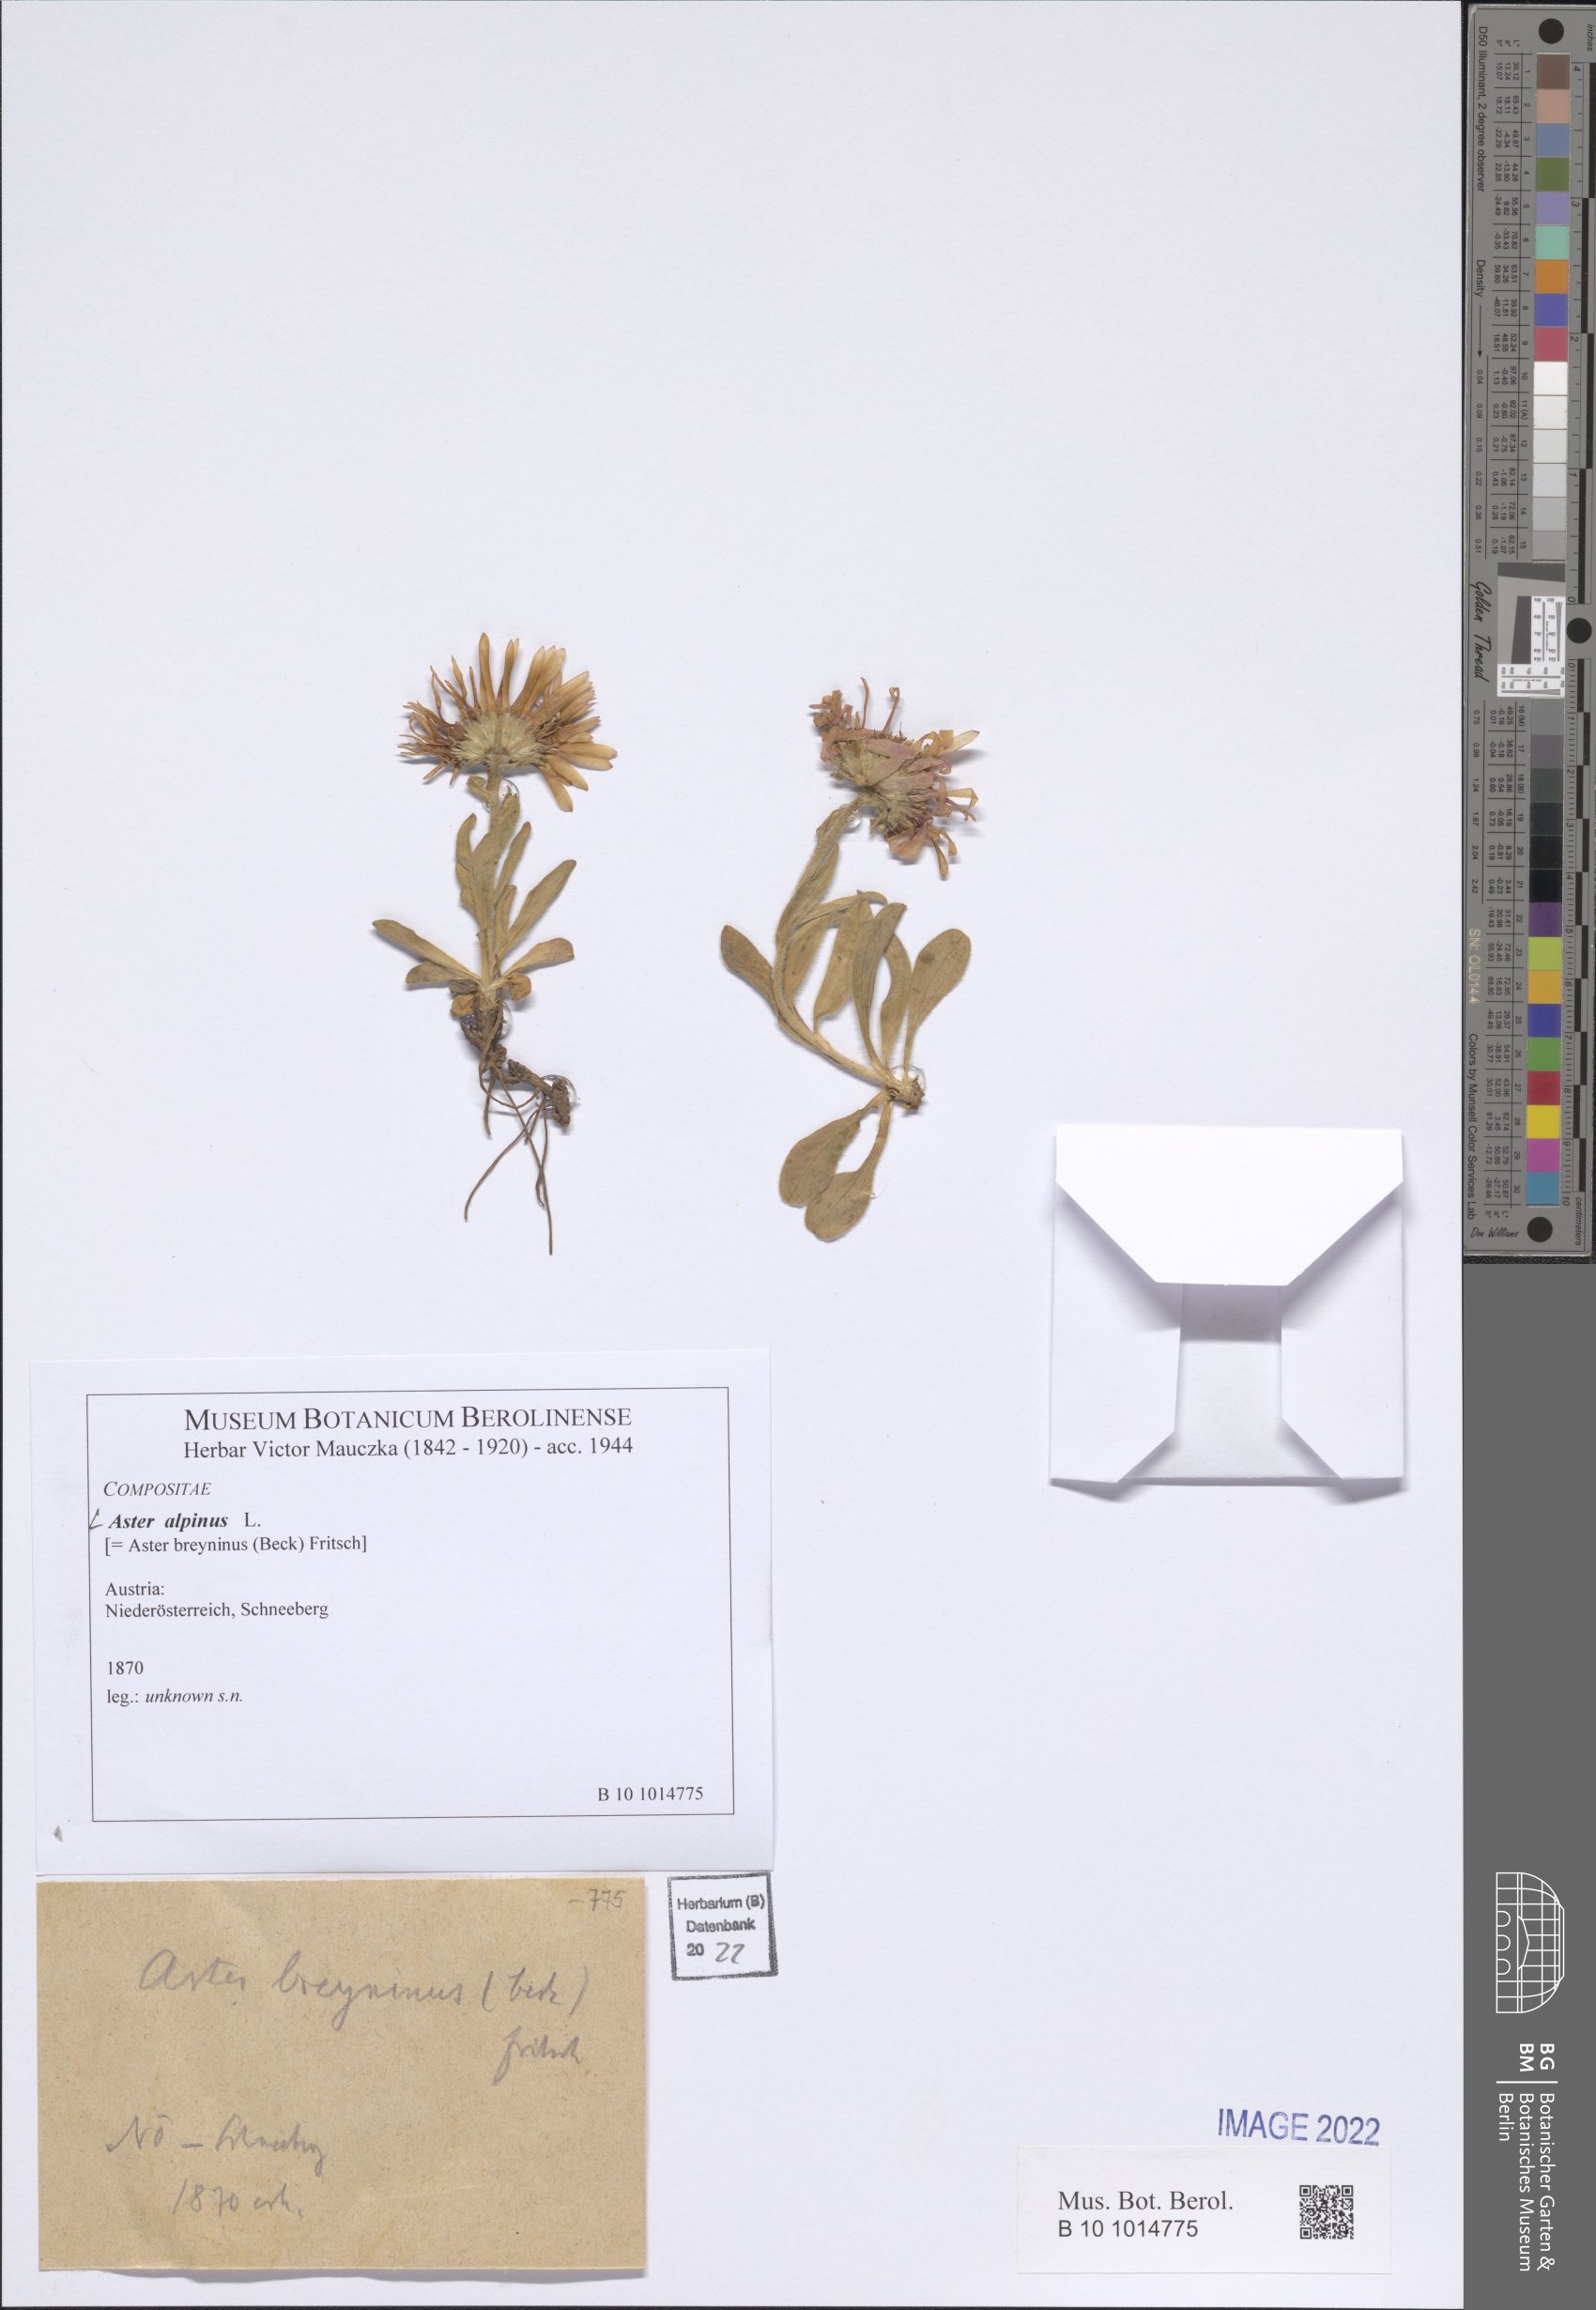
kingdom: Plantae
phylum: Tracheophyta
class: Magnoliopsida
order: Asterales
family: Asteraceae
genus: Aster
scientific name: Aster alpinus
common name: Alpine aster
